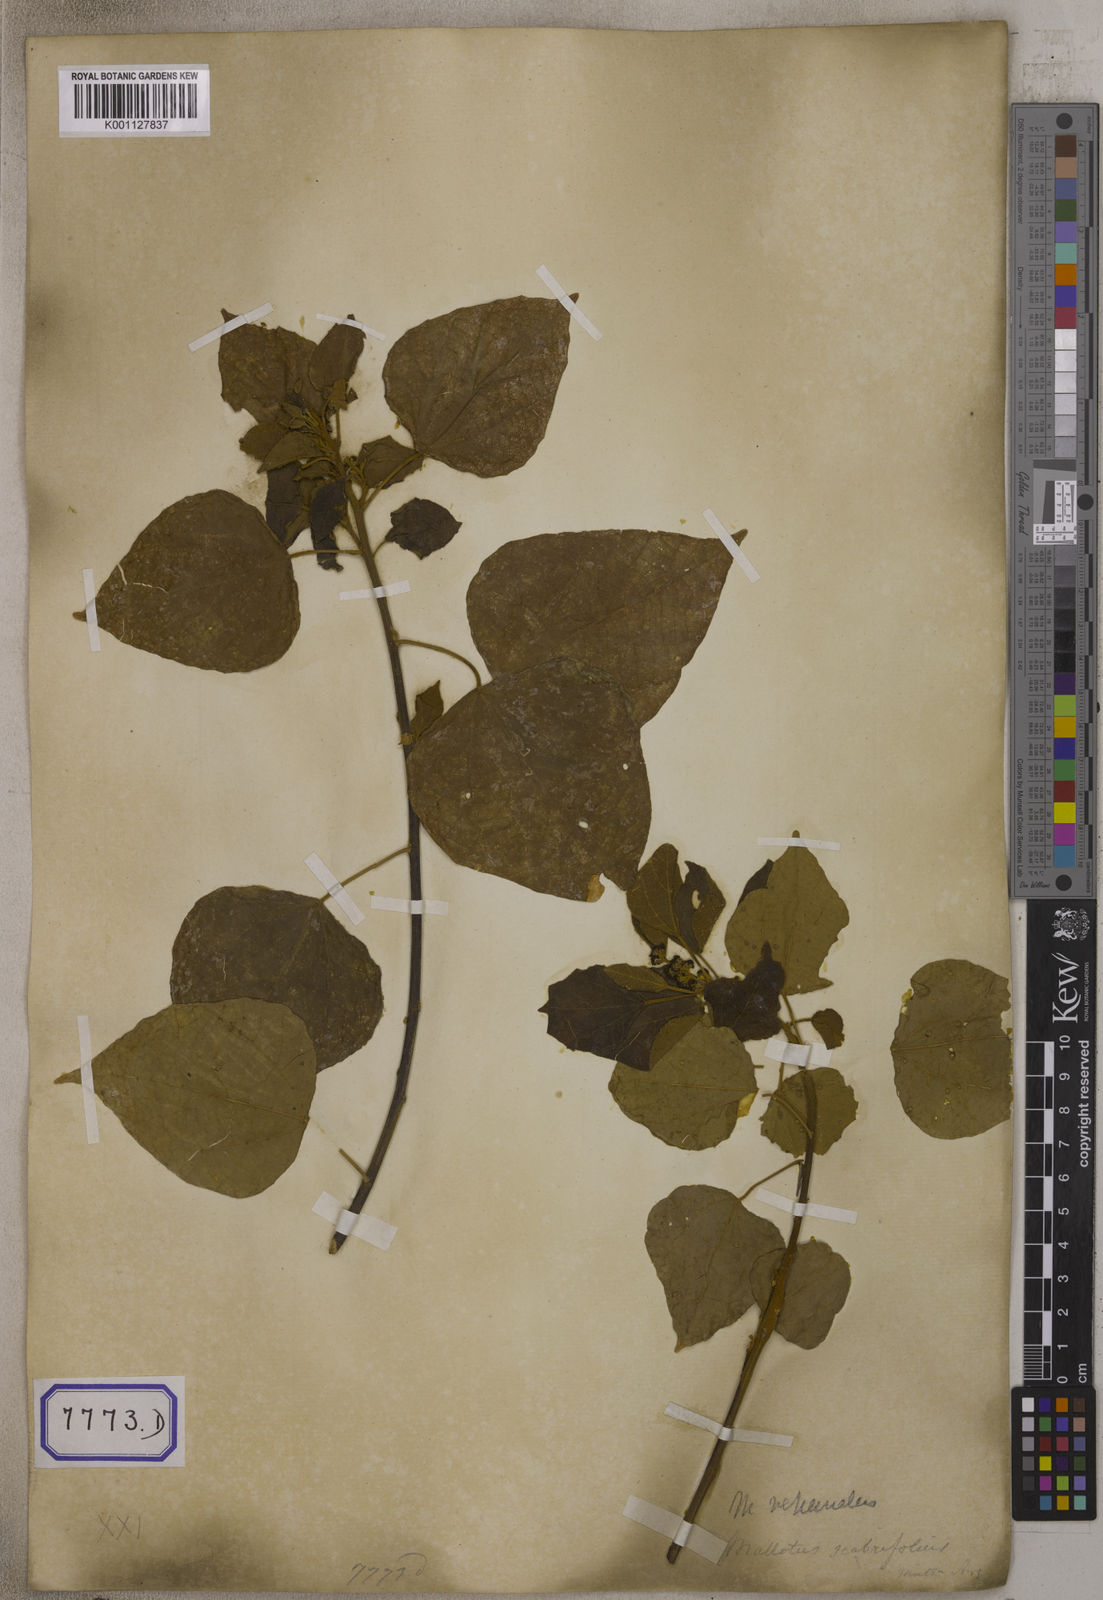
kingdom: Plantae
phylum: Tracheophyta
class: Magnoliopsida
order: Malpighiales
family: Euphorbiaceae
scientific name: Euphorbiaceae
